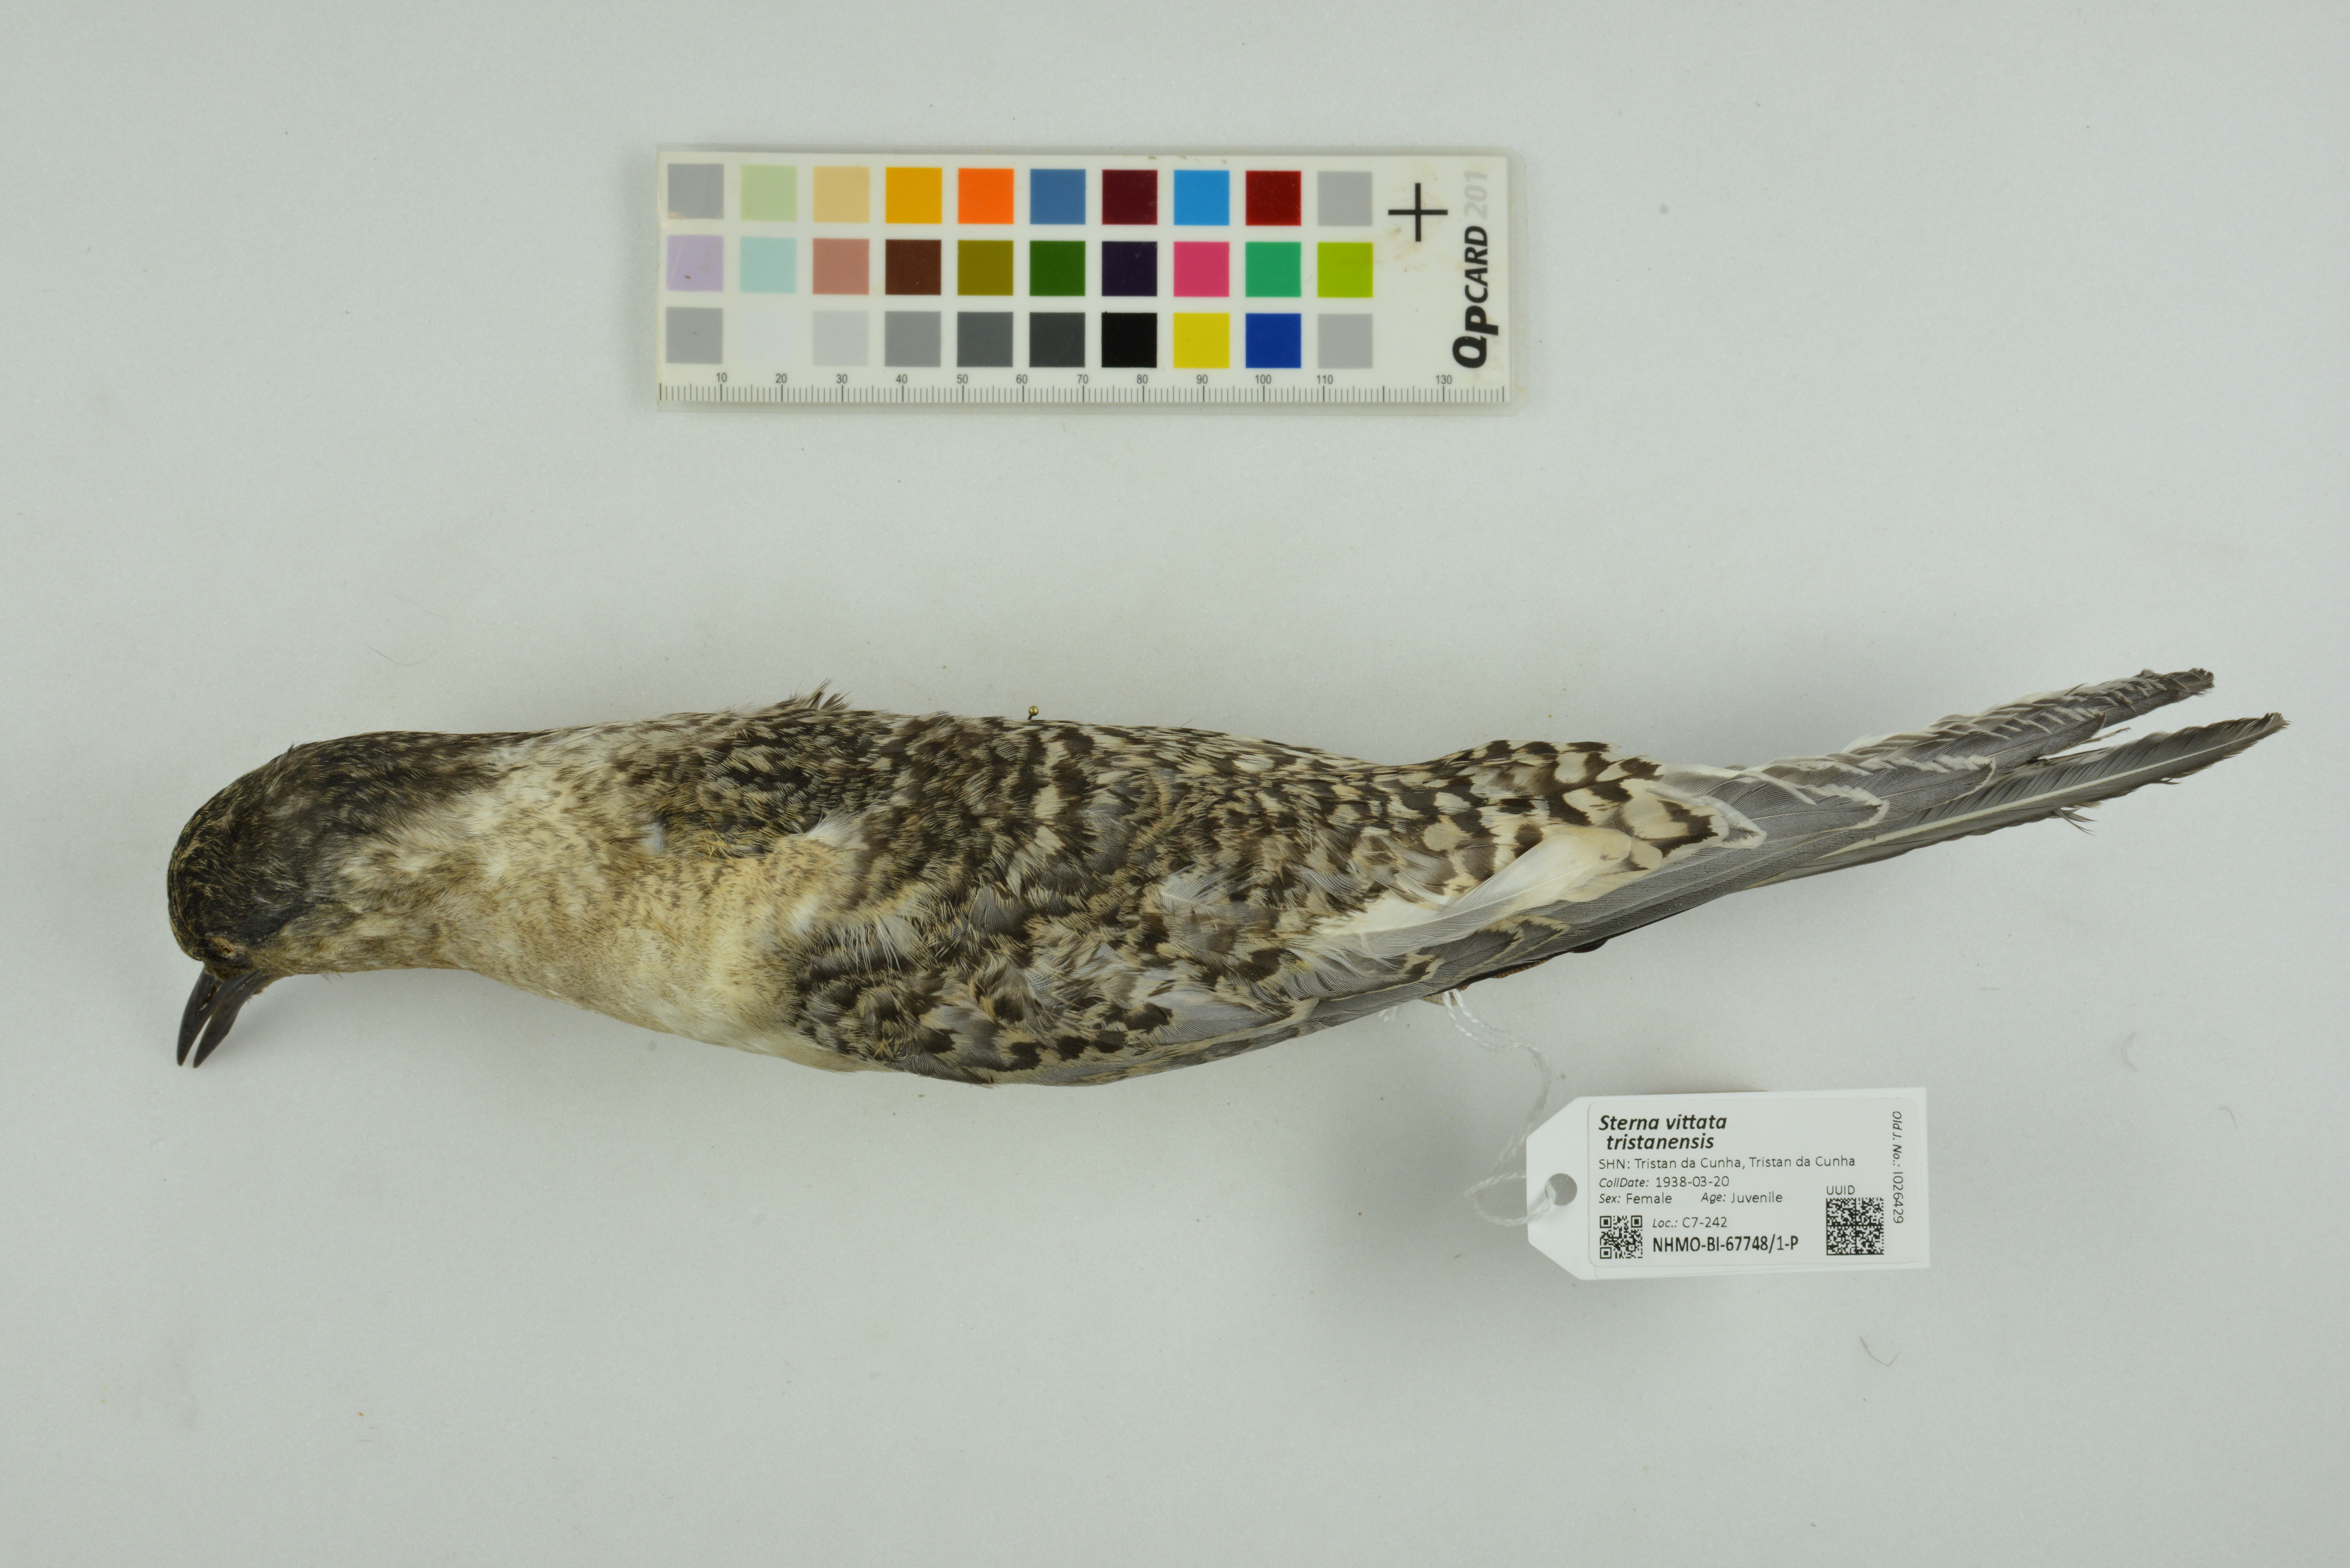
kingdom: Animalia
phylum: Chordata
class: Aves
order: Charadriiformes
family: Laridae
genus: Sterna
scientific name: Sterna vittata
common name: Antarctic tern
